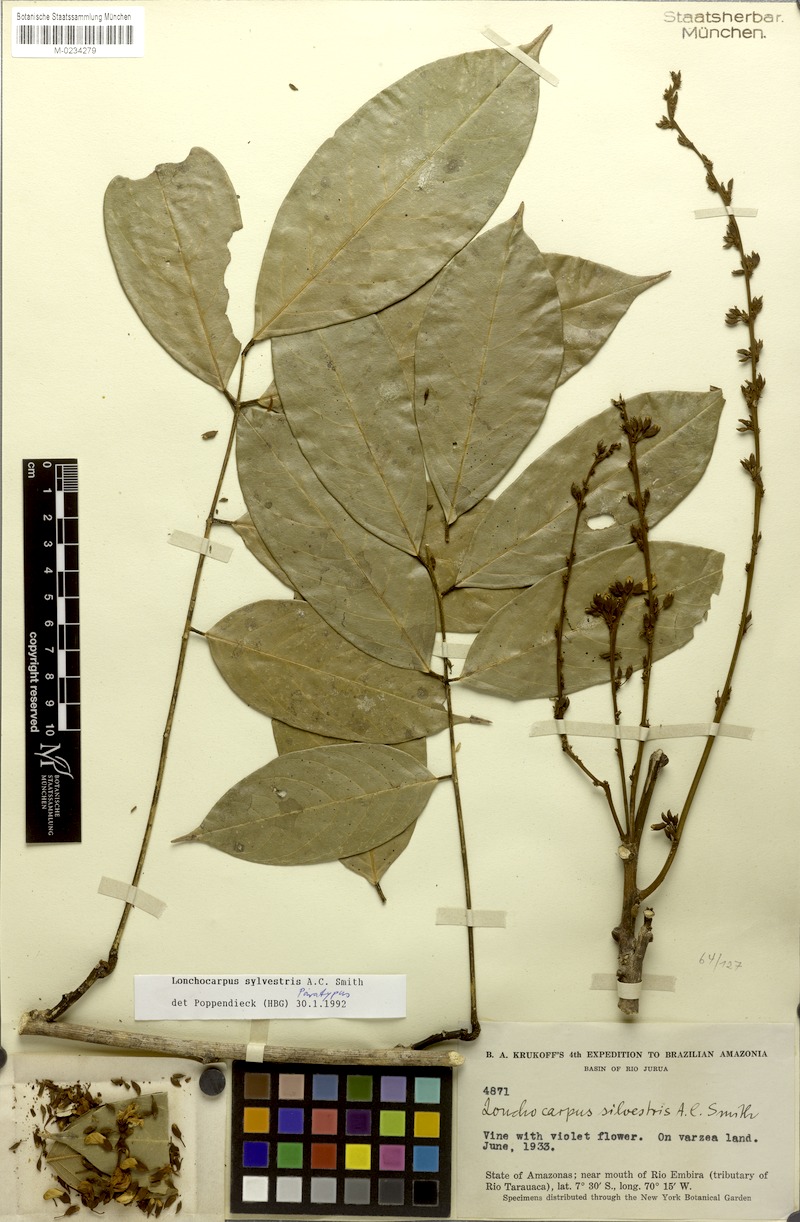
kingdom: Plantae
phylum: Tracheophyta
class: Magnoliopsida
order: Fabales
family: Fabaceae
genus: Deguelia
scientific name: Deguelia angulata
